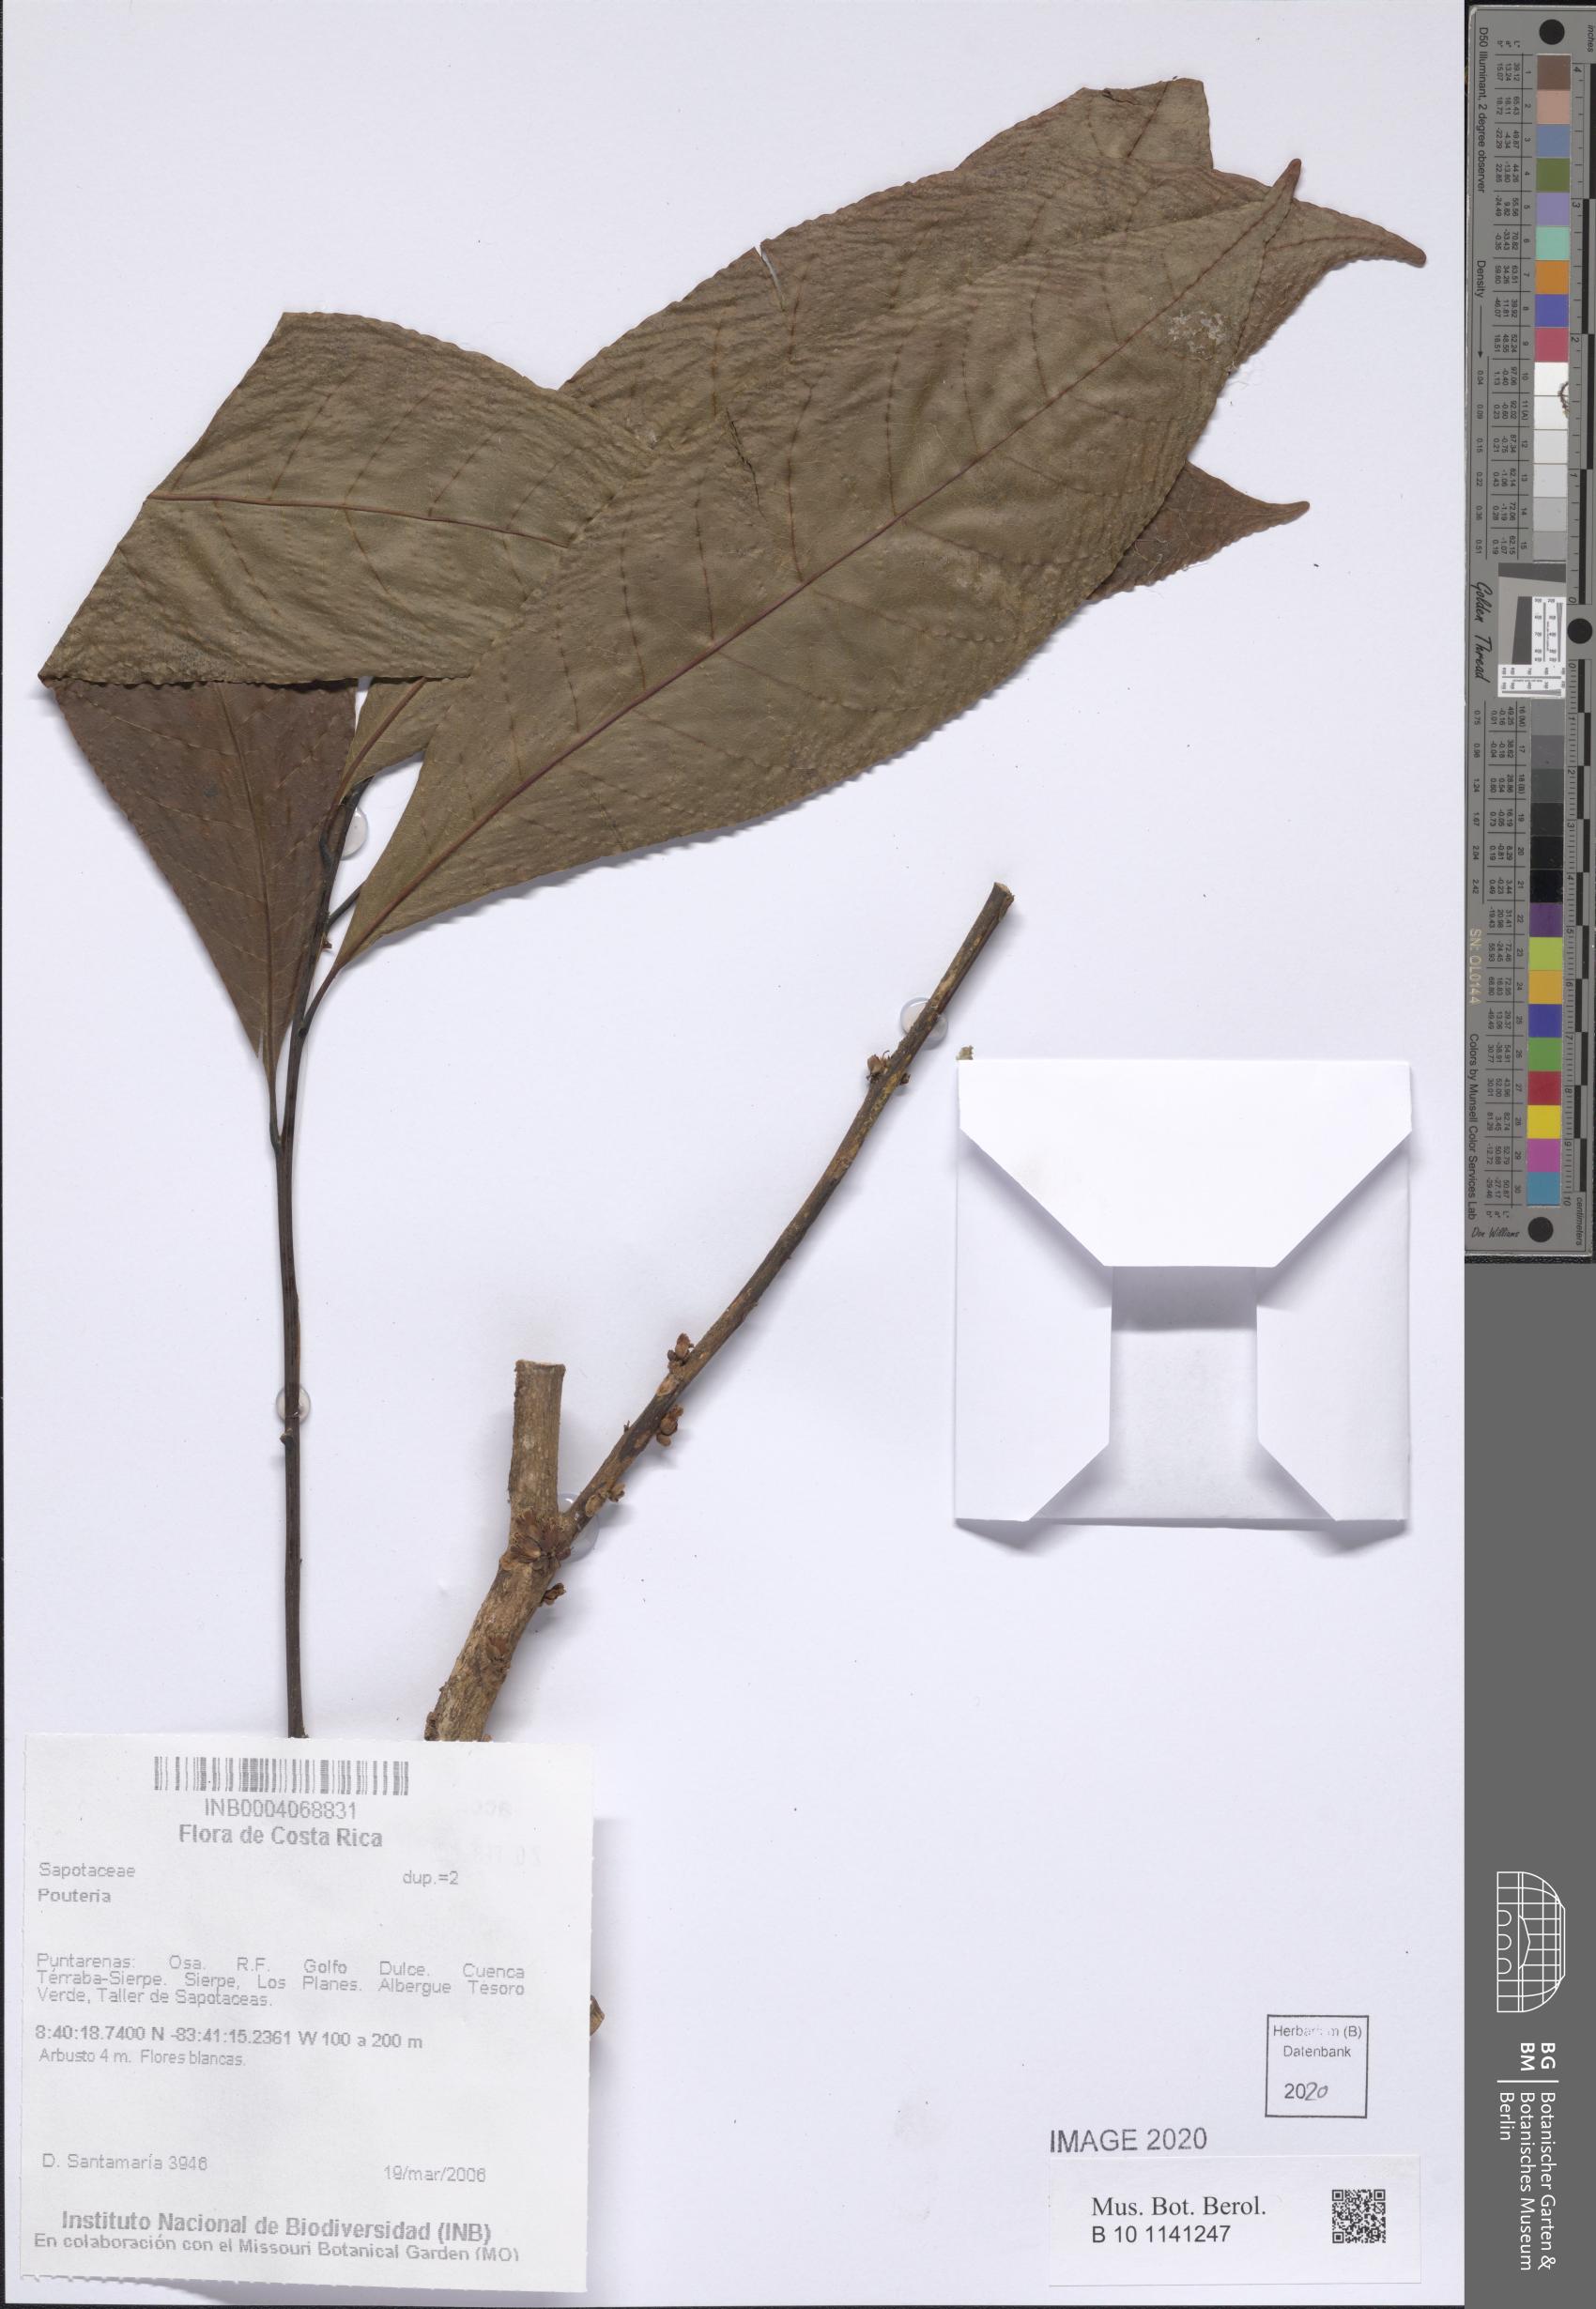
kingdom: Plantae
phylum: Tracheophyta
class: Magnoliopsida
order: Ericales
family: Sapotaceae
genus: Pouteria
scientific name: Pouteria
